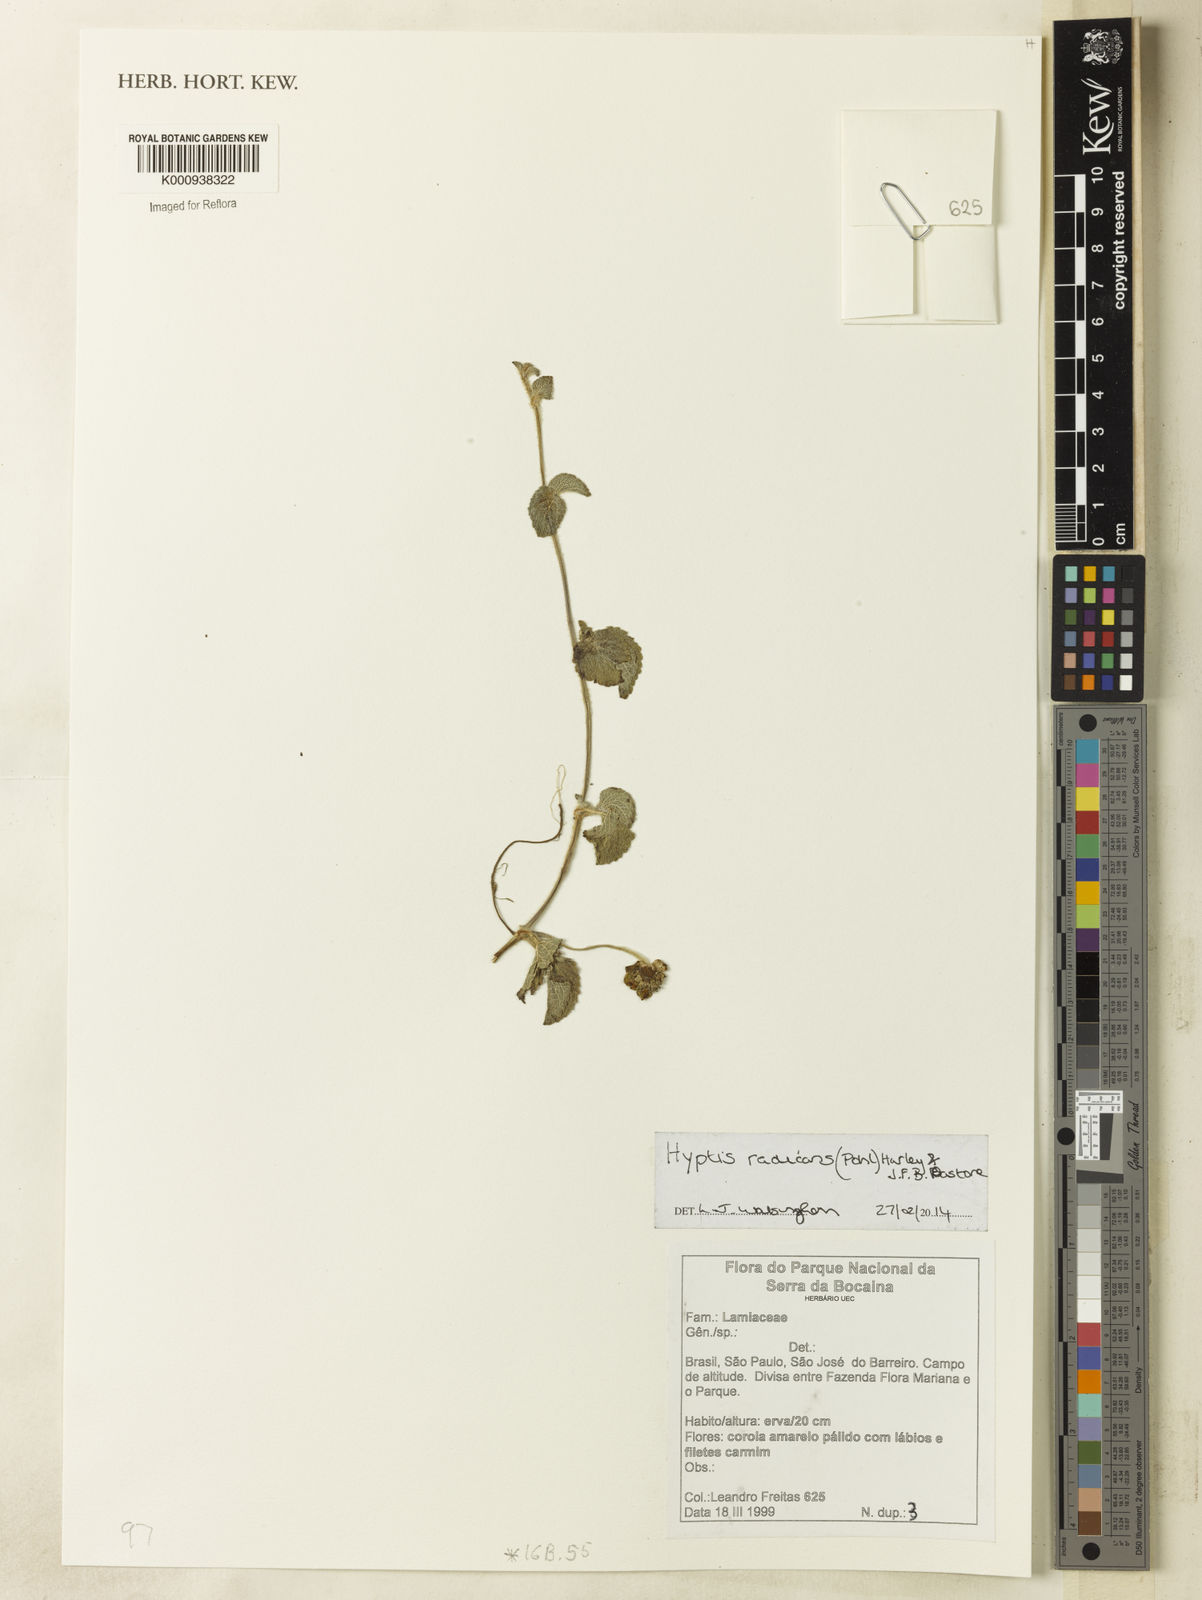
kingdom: Plantae
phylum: Tracheophyta
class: Magnoliopsida
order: Lamiales
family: Lamiaceae
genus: Hyptis
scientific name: Hyptis radicans
